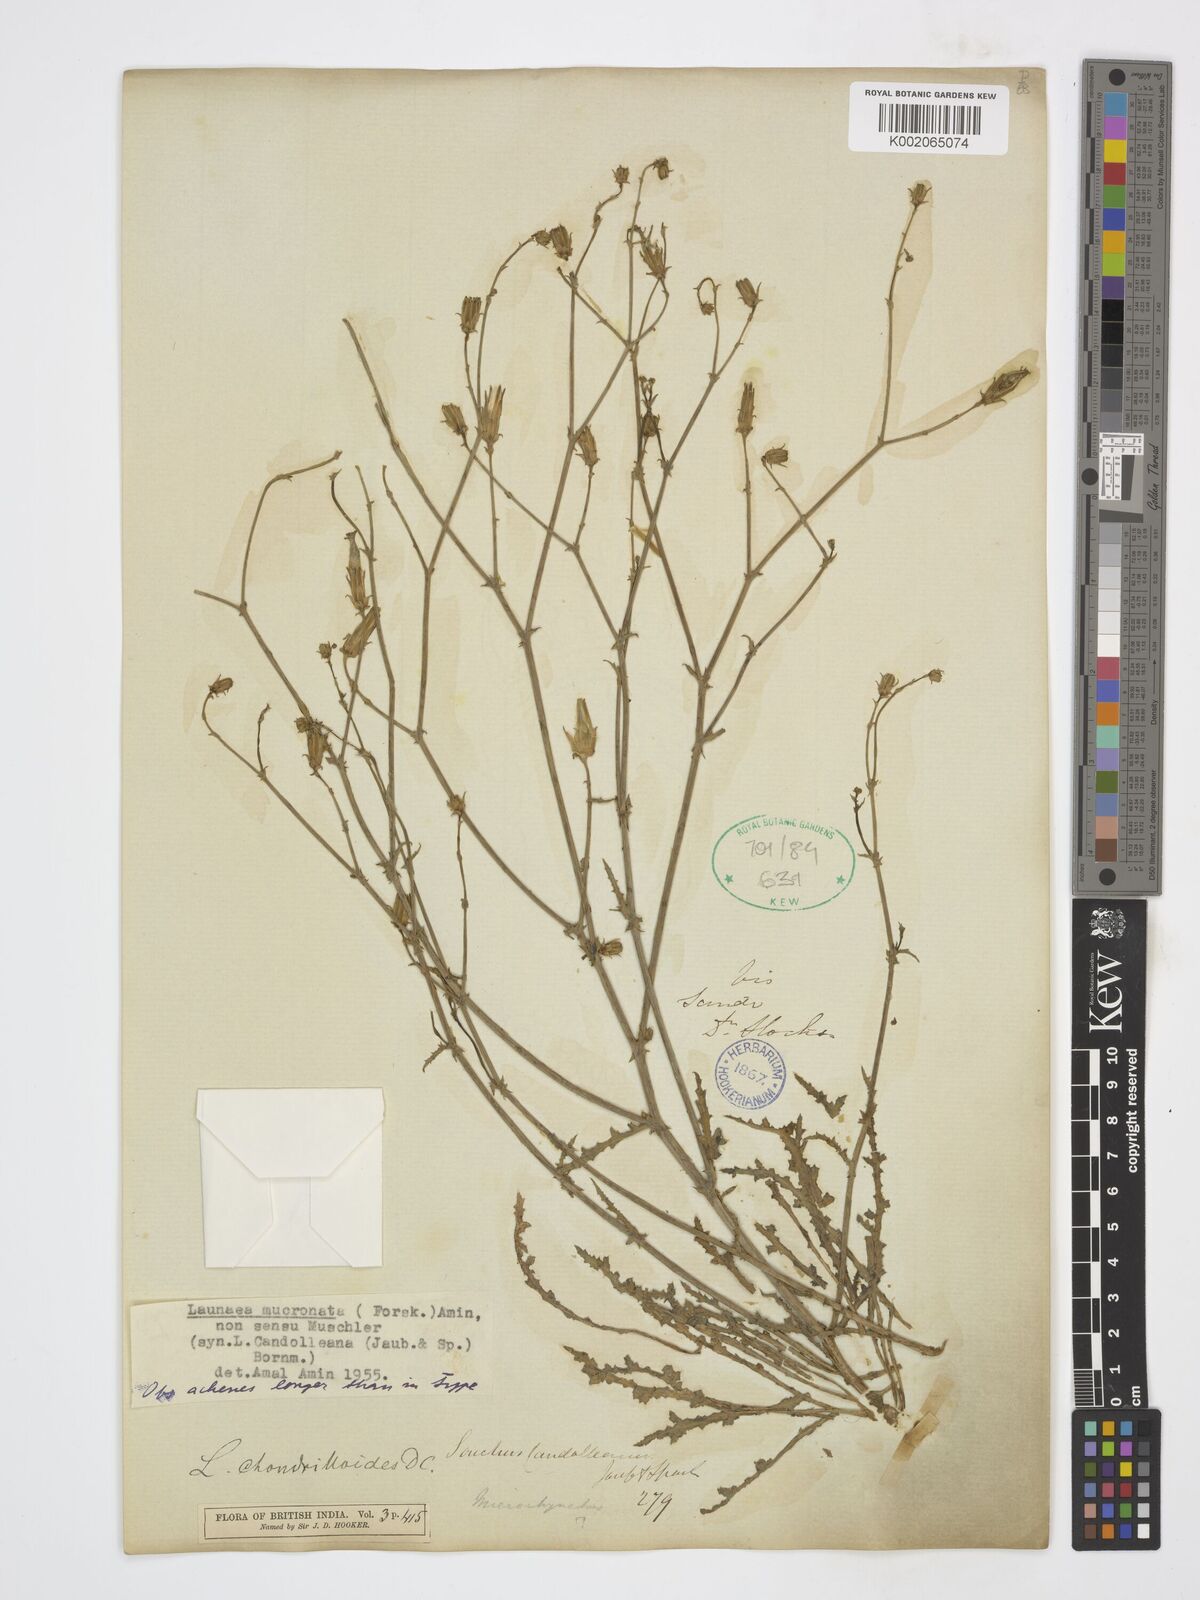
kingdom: Plantae
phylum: Tracheophyta
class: Magnoliopsida
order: Asterales
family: Asteraceae
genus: Launaea
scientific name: Launaea mucronata
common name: Mucronate launea
